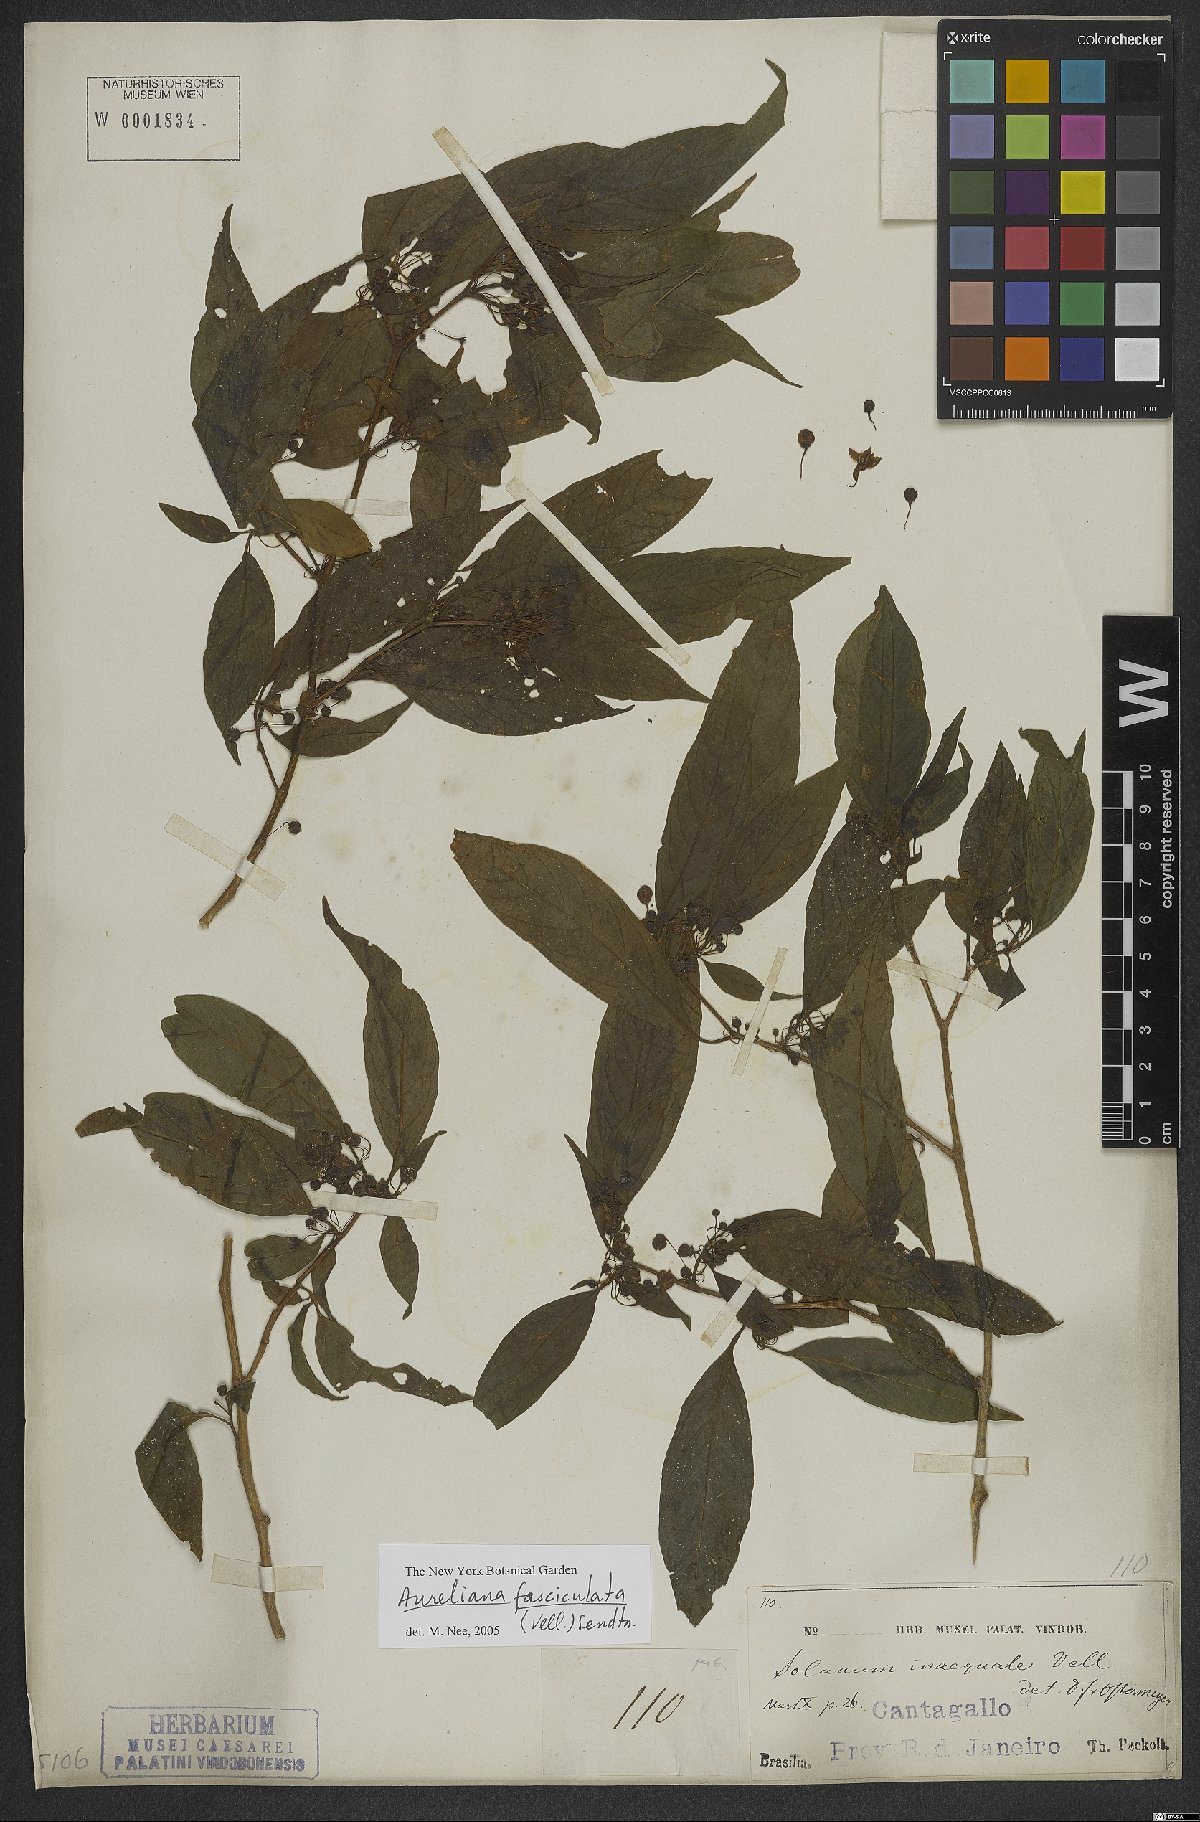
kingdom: Plantae
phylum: Tracheophyta
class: Magnoliopsida
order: Solanales
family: Solanaceae
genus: Athenaea
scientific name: Athenaea fasciculata
